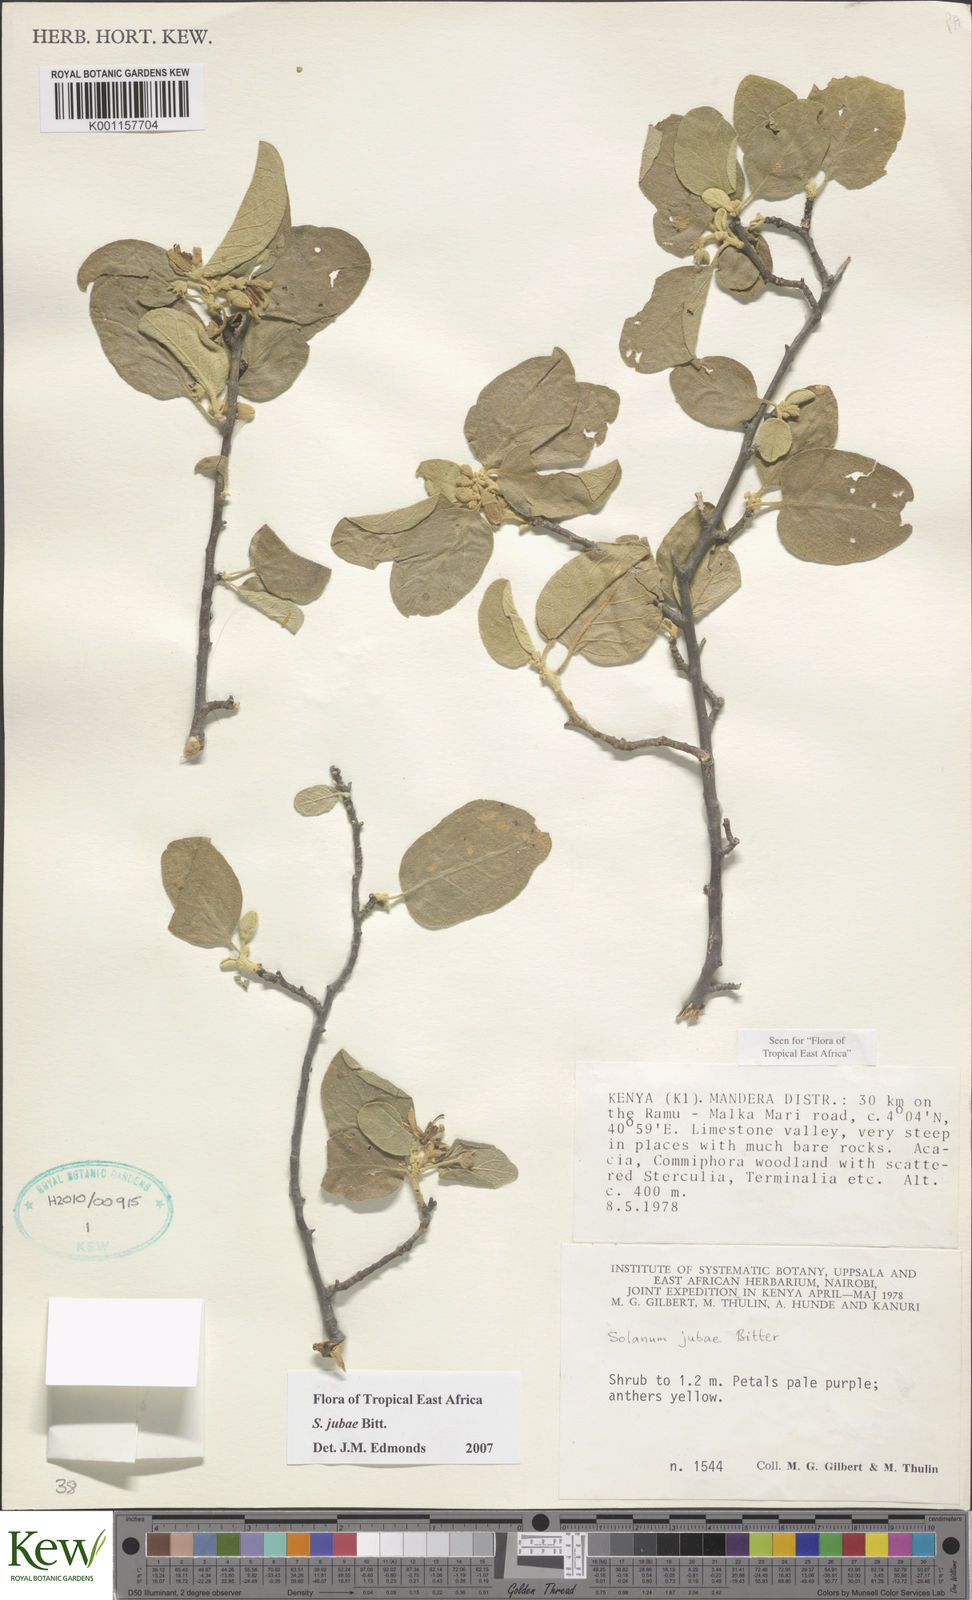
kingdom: Plantae
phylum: Tracheophyta
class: Magnoliopsida
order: Solanales
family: Solanaceae
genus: Solanum
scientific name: Solanum jubae
